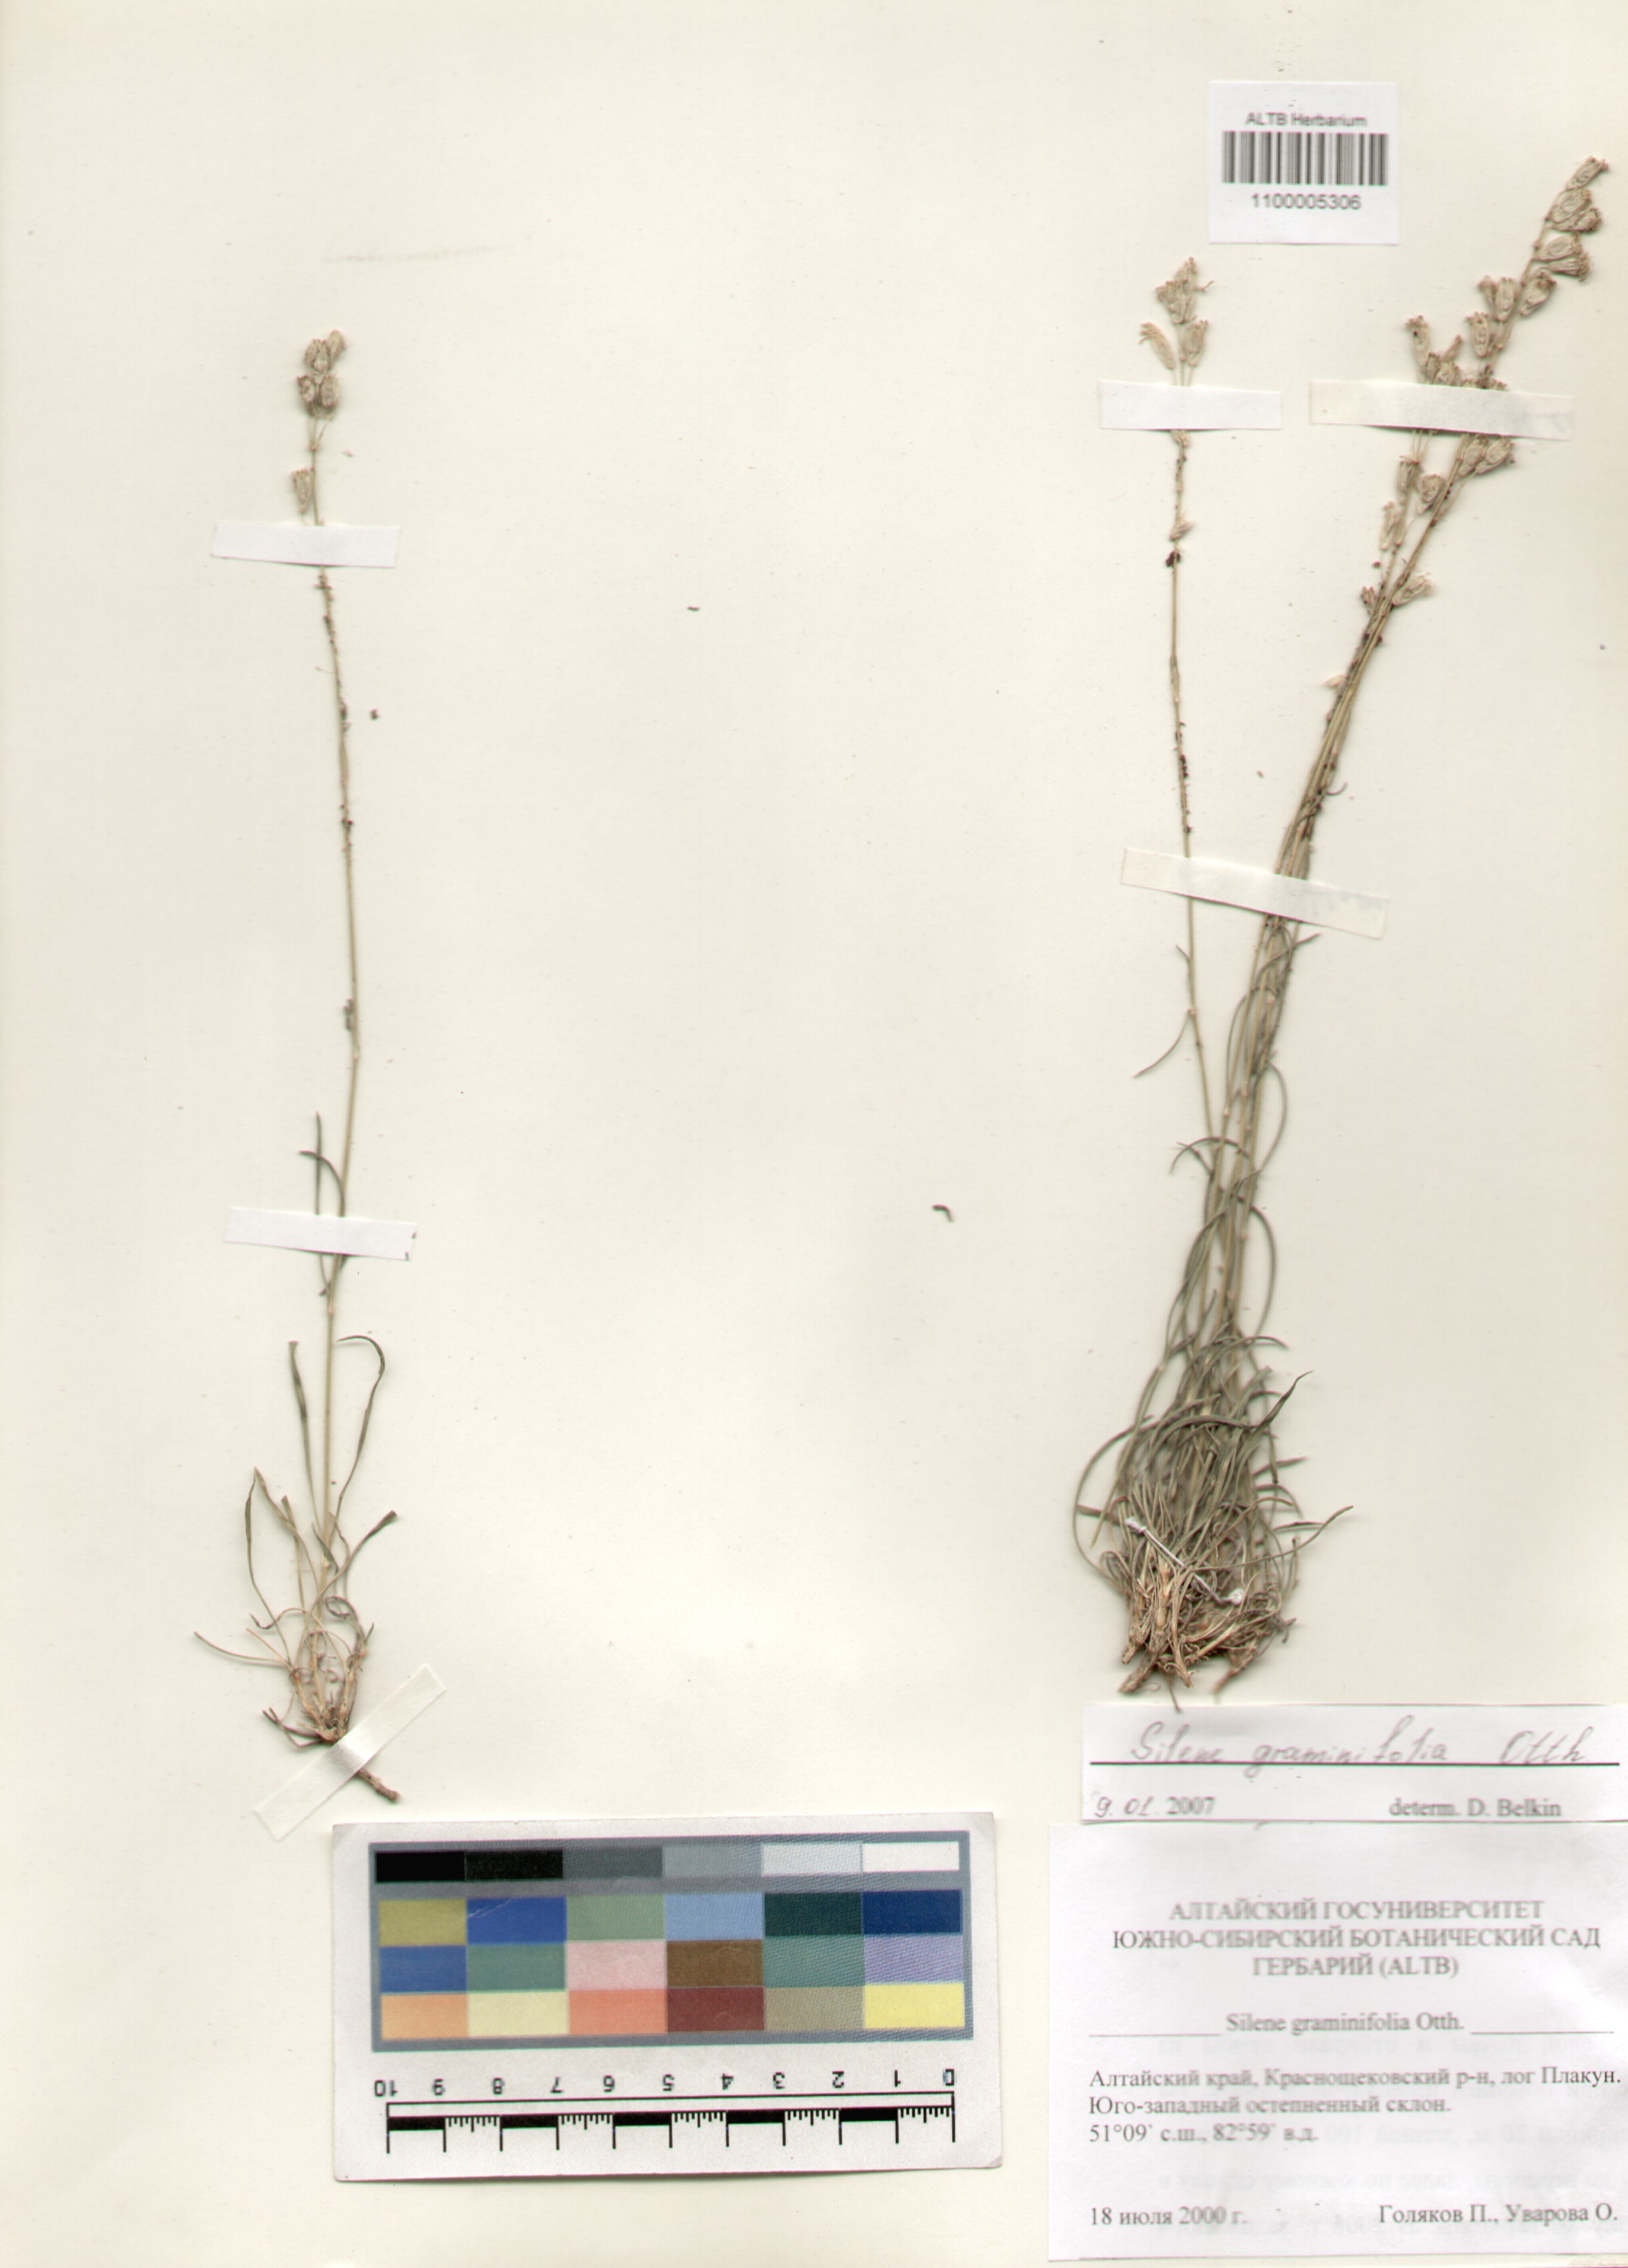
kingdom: Plantae
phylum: Tracheophyta
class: Magnoliopsida
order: Caryophyllales
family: Caryophyllaceae
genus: Silene
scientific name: Silene graminifolia
